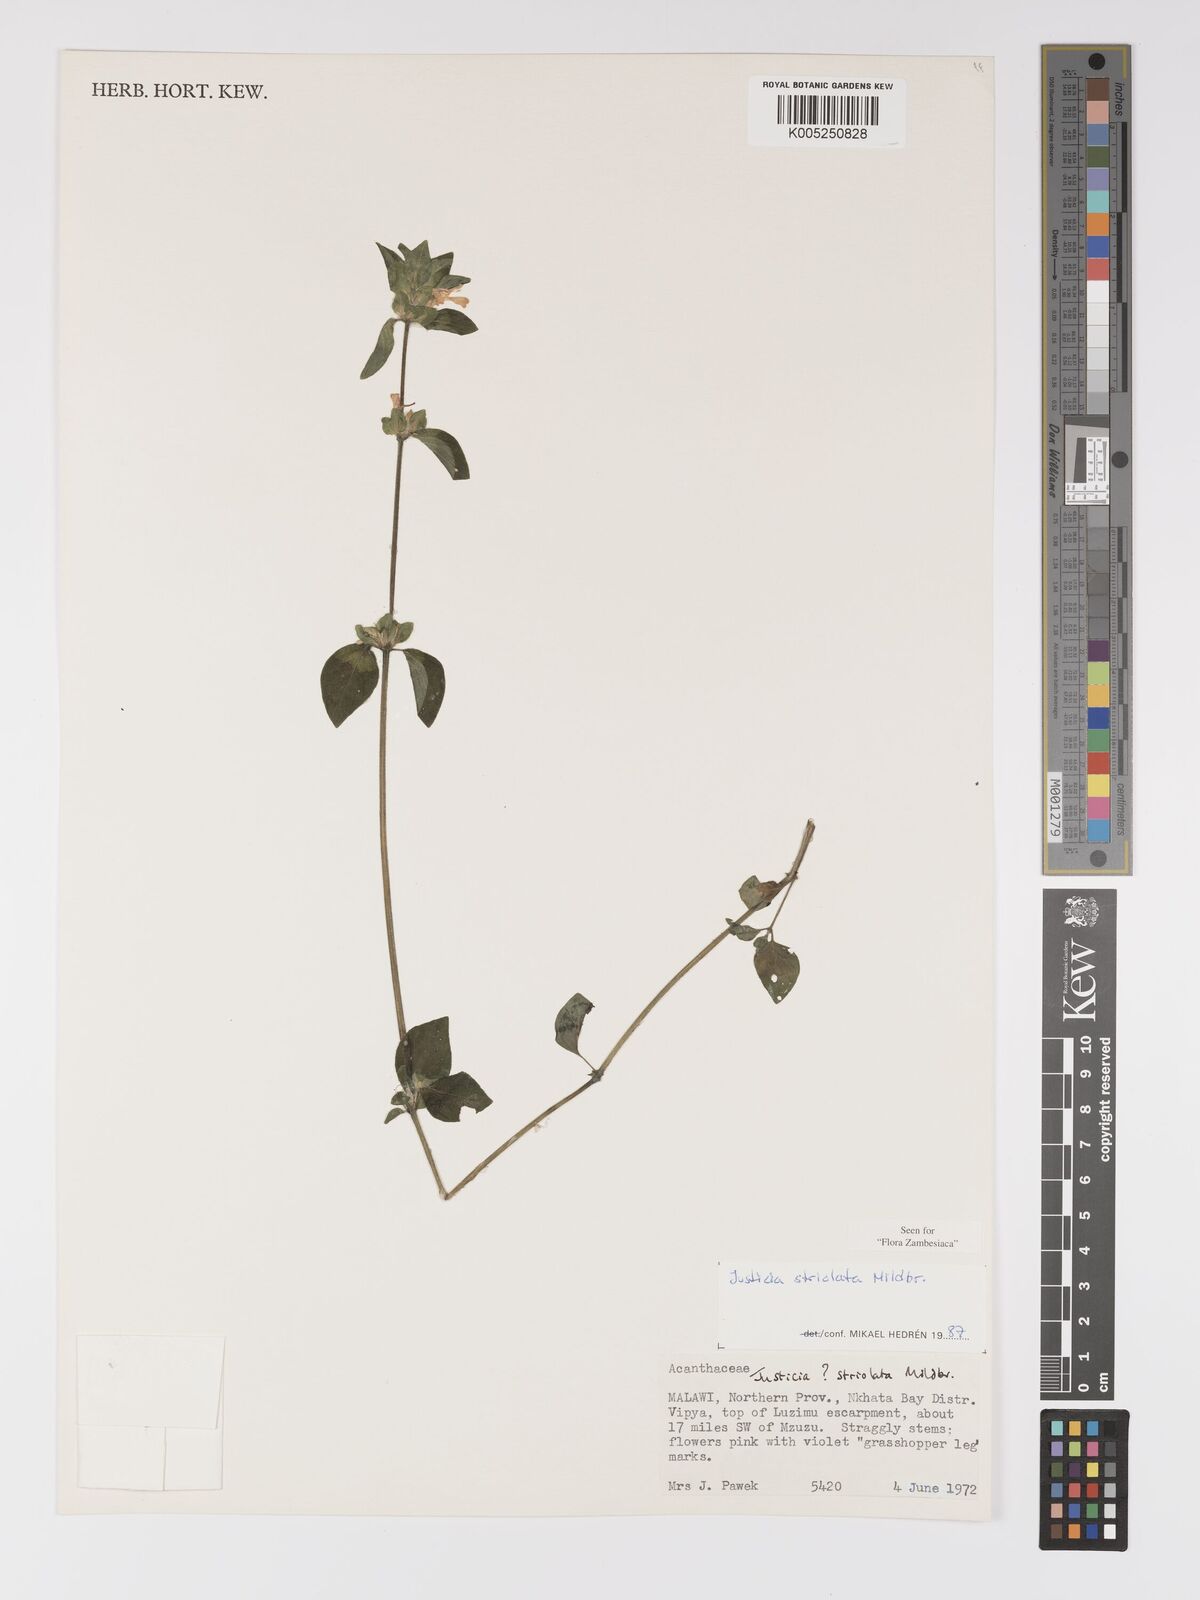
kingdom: Plantae
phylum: Tracheophyta
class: Magnoliopsida
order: Lamiales
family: Acanthaceae
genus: Justicia
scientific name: Justicia striolata
